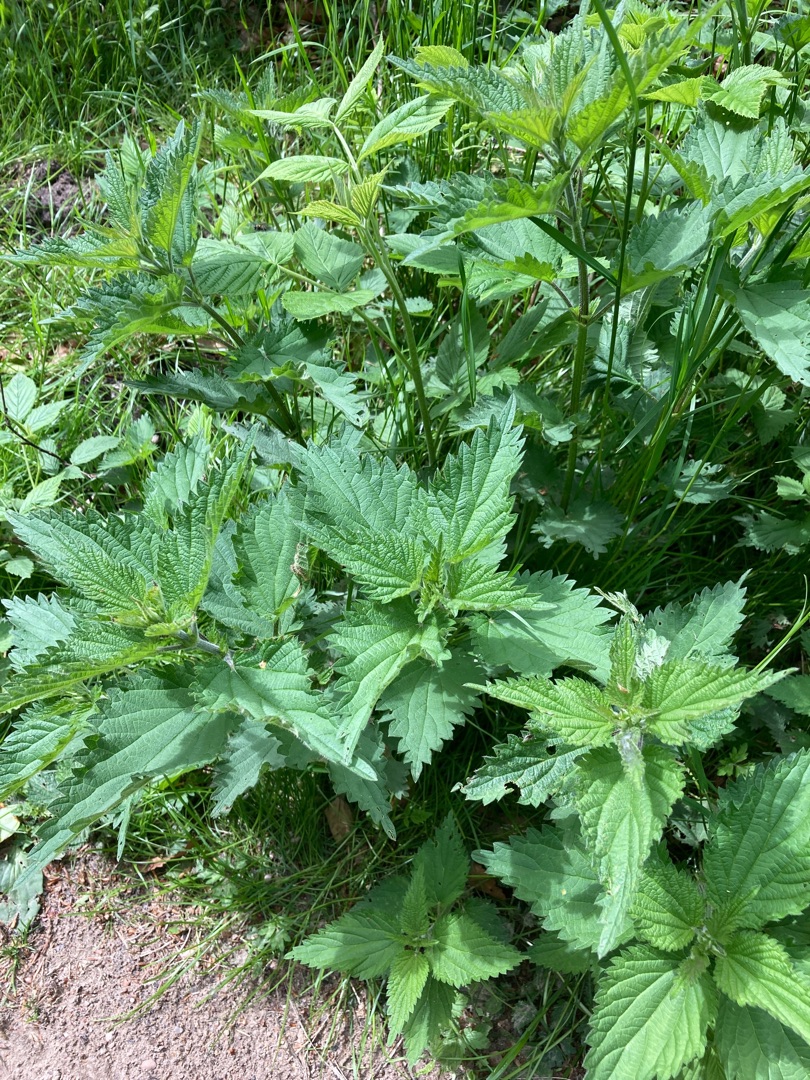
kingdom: Plantae
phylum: Tracheophyta
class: Magnoliopsida
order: Rosales
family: Urticaceae
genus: Urtica
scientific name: Urtica dioica
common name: Stor nælde
